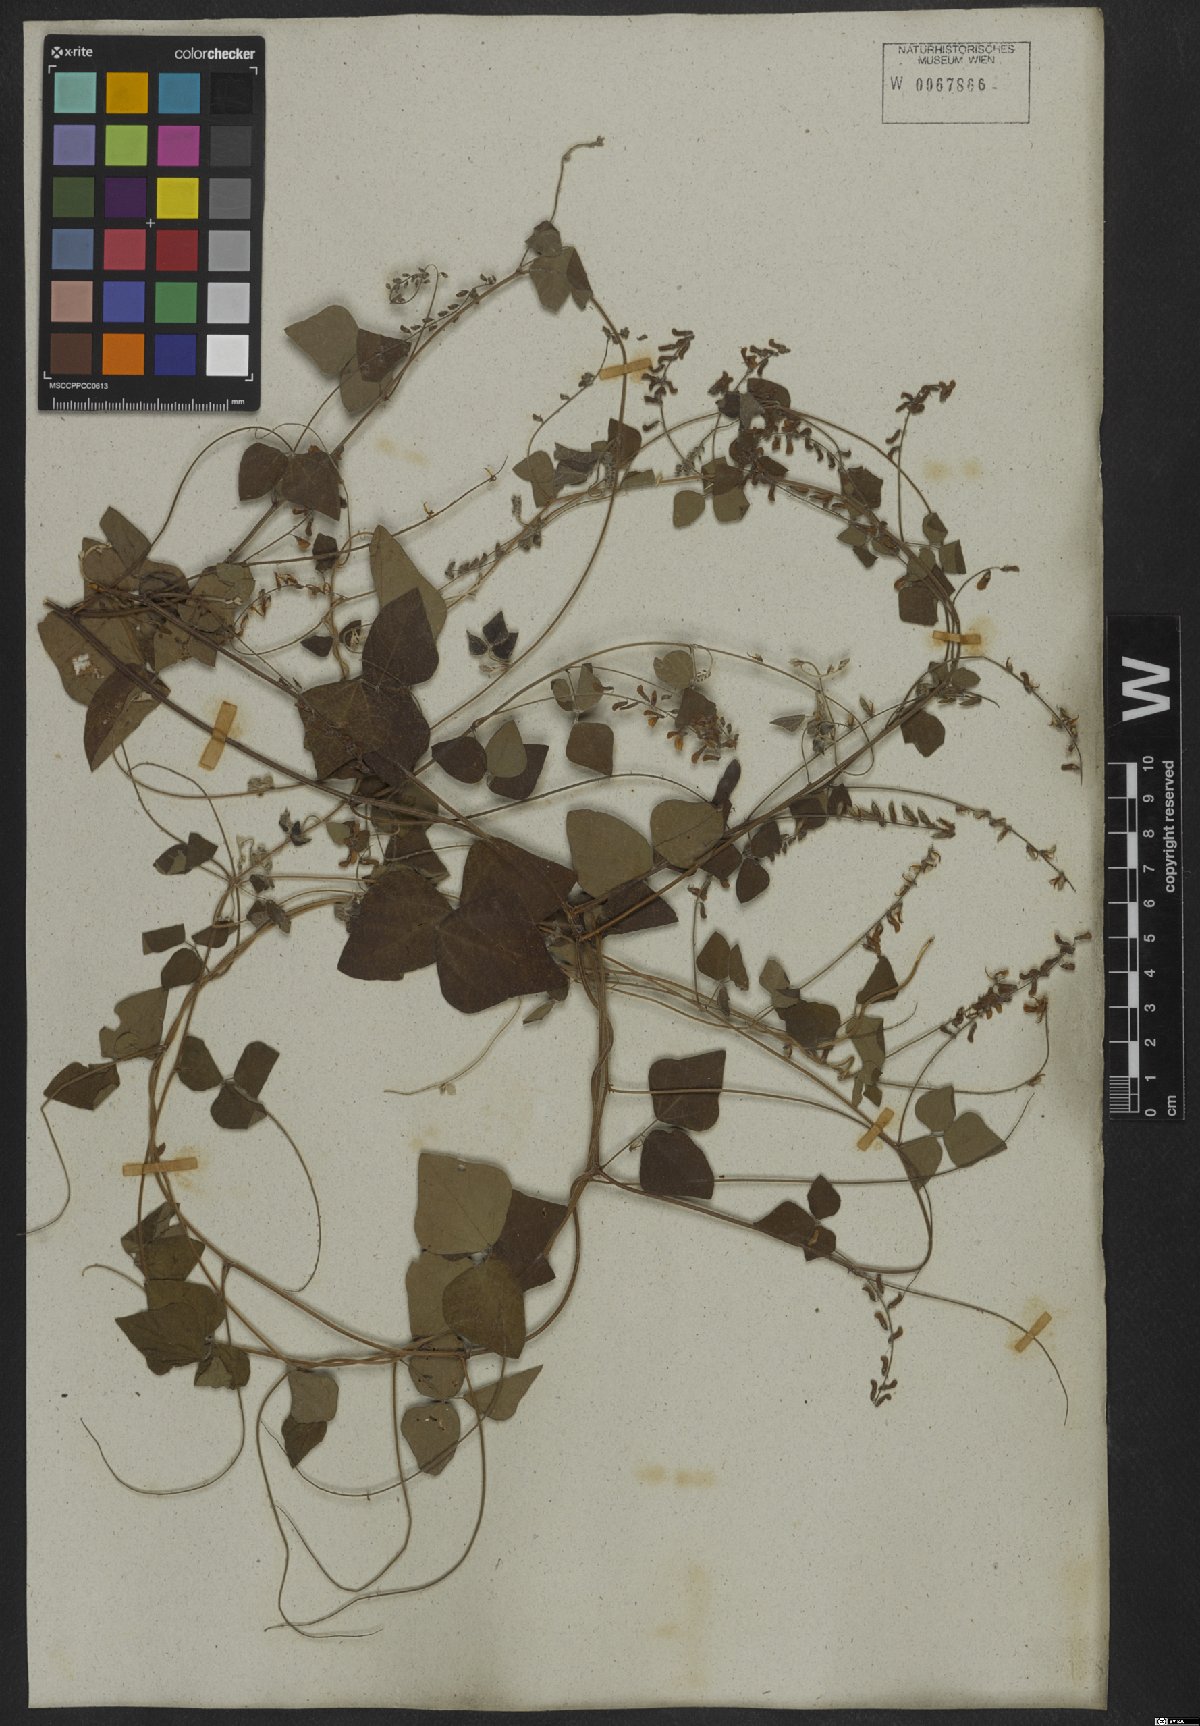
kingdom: Plantae
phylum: Tracheophyta
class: Magnoliopsida
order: Fabales
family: Fabaceae
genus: Rhynchosia
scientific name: Rhynchosia minima
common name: Least snoutbean
